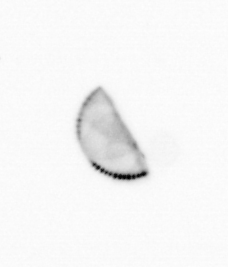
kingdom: Chromista
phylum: Ochrophyta
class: Bacillariophyceae
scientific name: Bacillariophyceae
